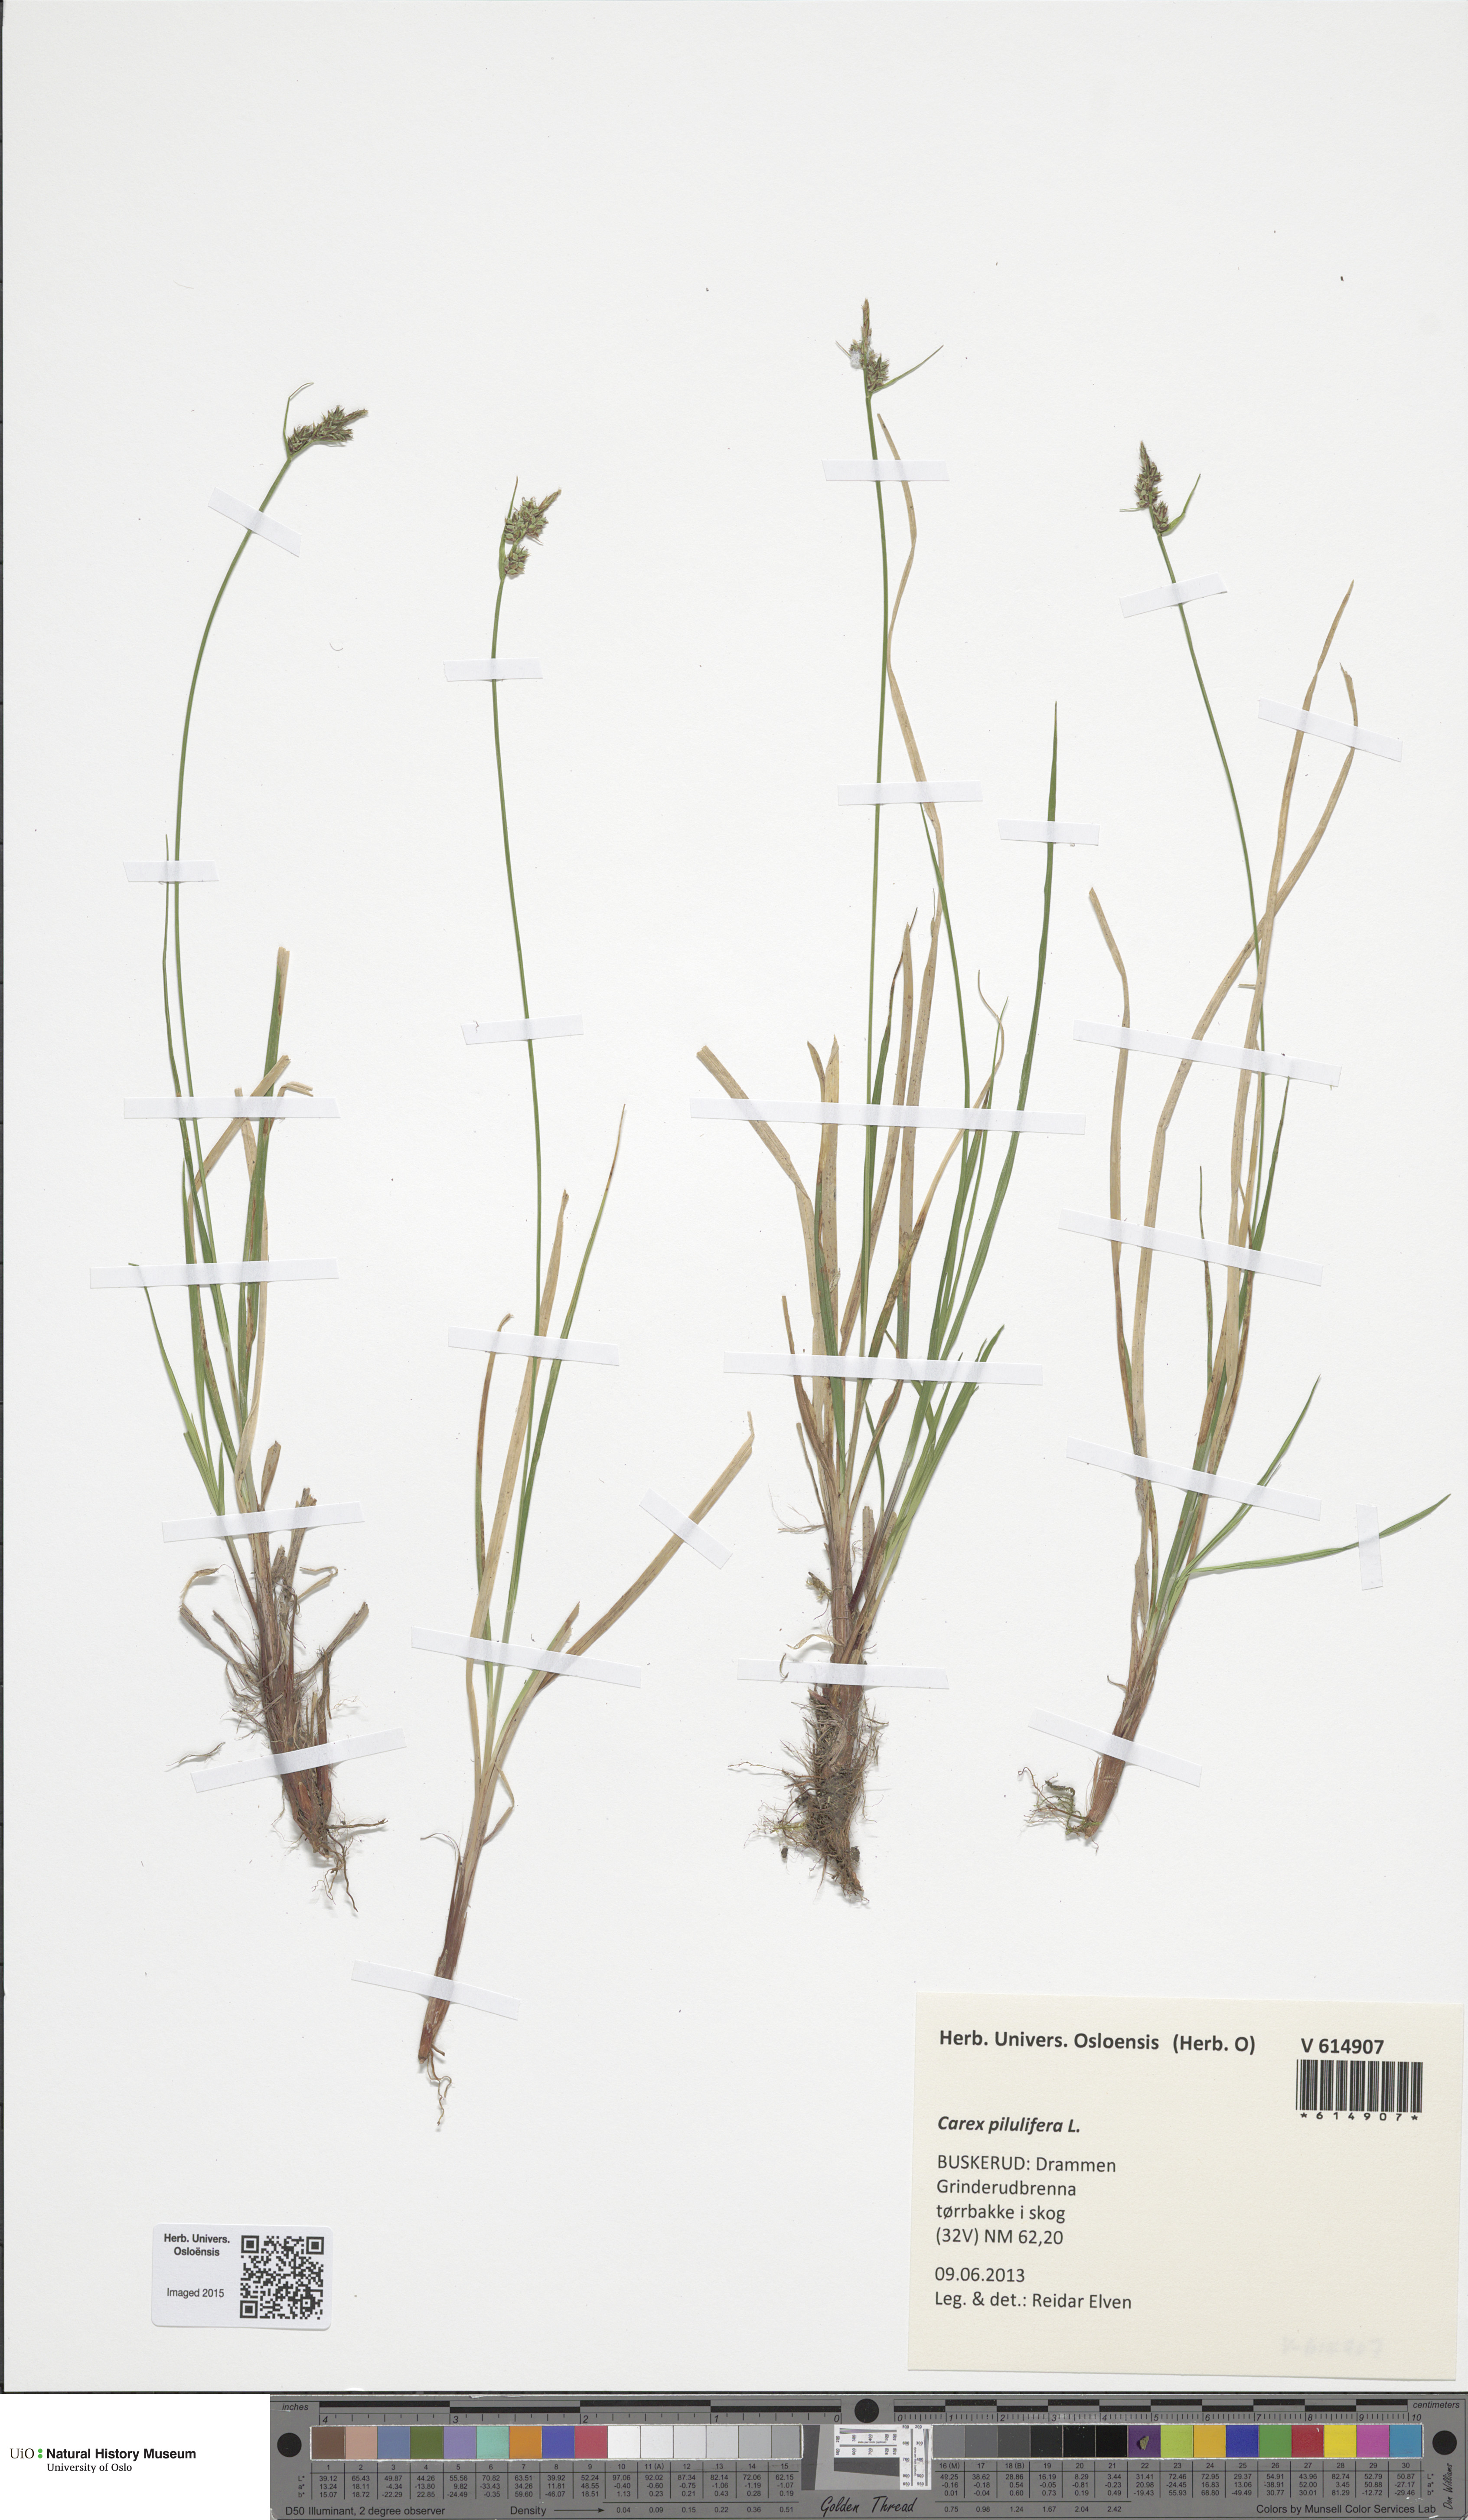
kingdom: Plantae
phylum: Tracheophyta
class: Liliopsida
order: Poales
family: Cyperaceae
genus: Carex
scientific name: Carex pilulifera
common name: Pill sedge
